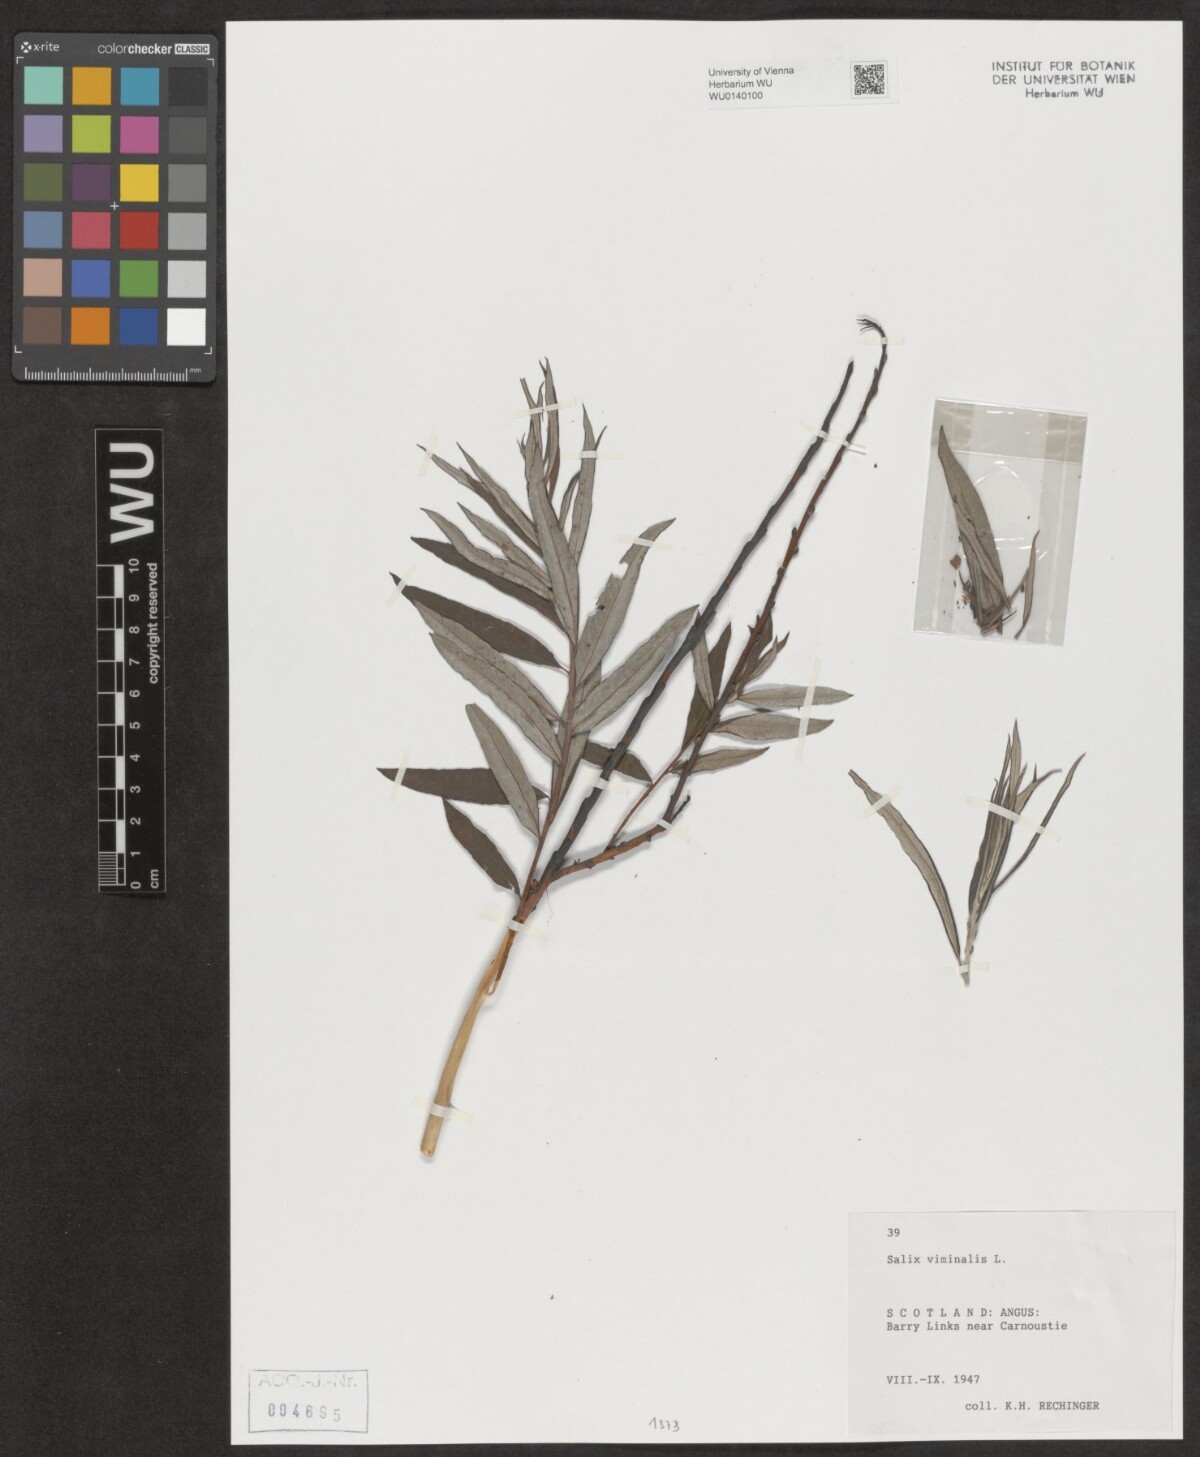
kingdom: Plantae
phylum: Tracheophyta
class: Magnoliopsida
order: Malpighiales
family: Salicaceae
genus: Salix
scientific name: Salix viminalis
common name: Osier
